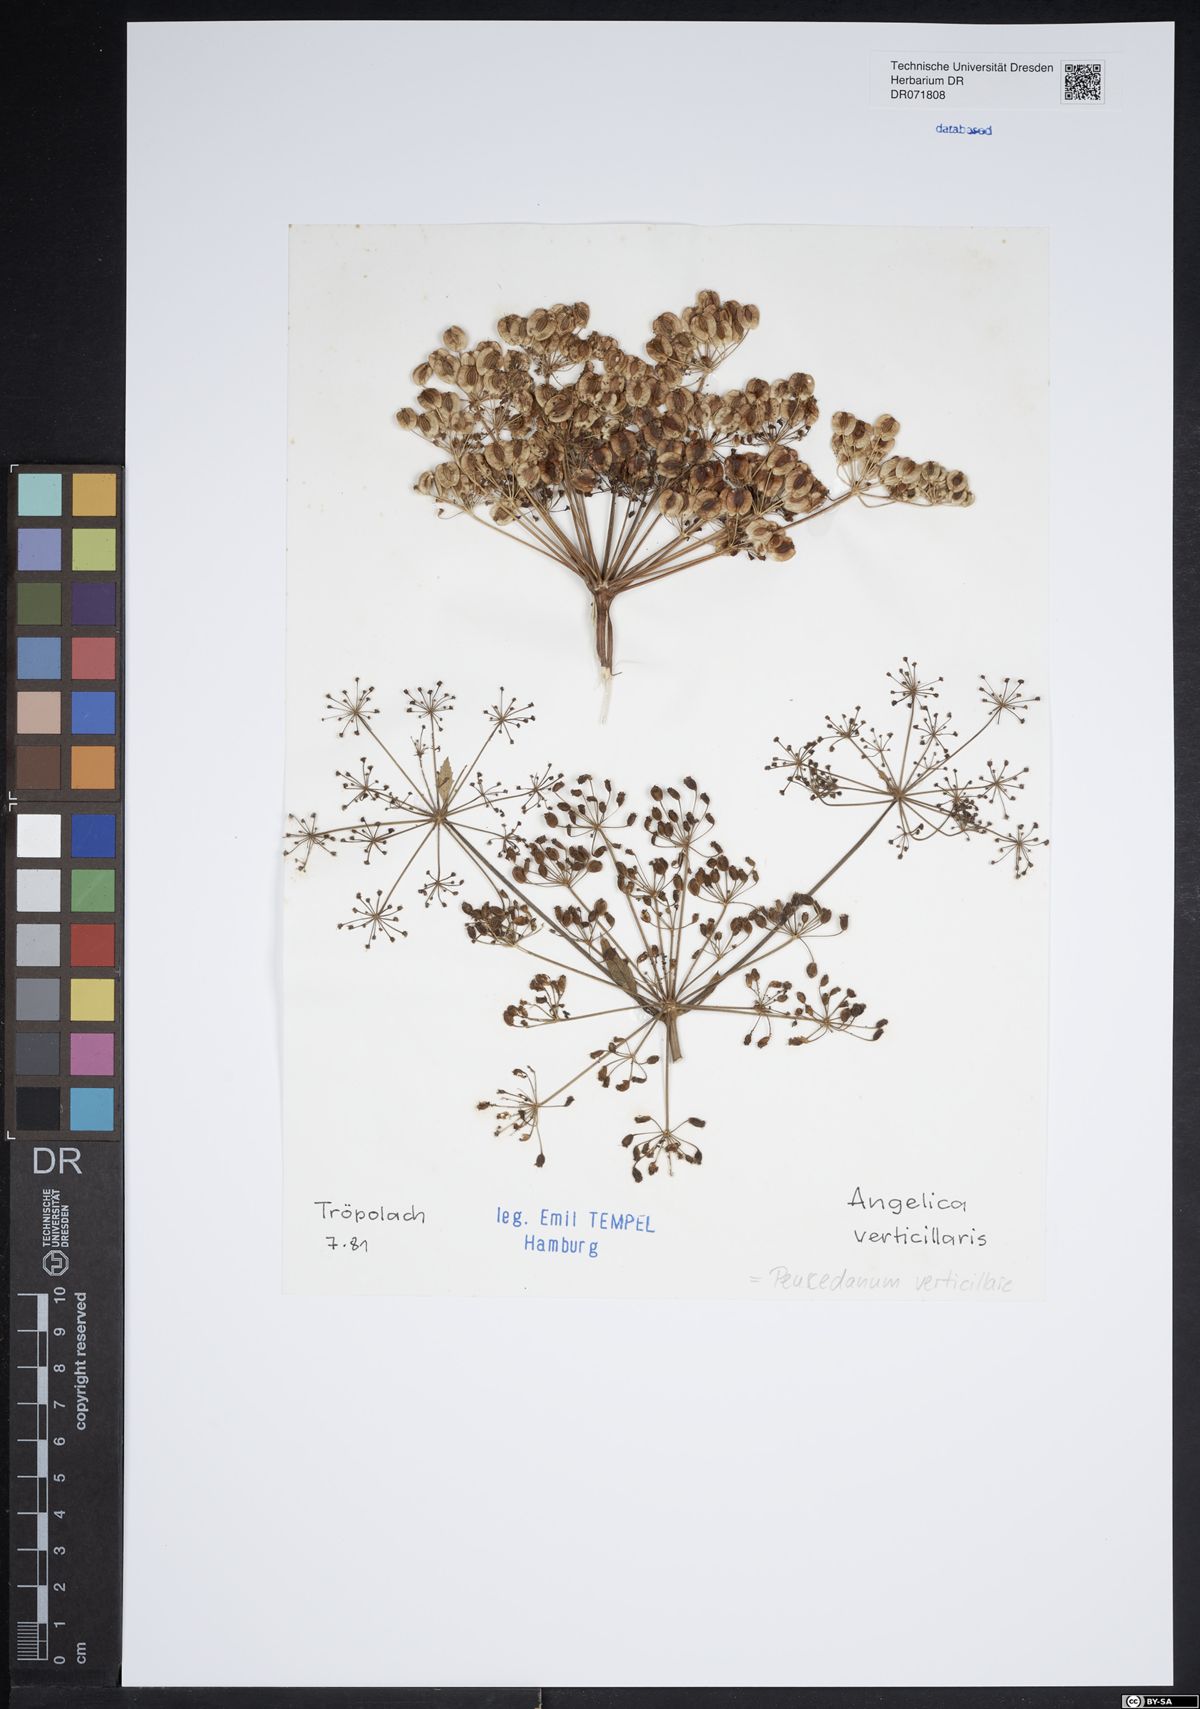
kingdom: Plantae
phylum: Tracheophyta
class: Magnoliopsida
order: Apiales
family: Apiaceae
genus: Tommasinia
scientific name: Tommasinia altissima
